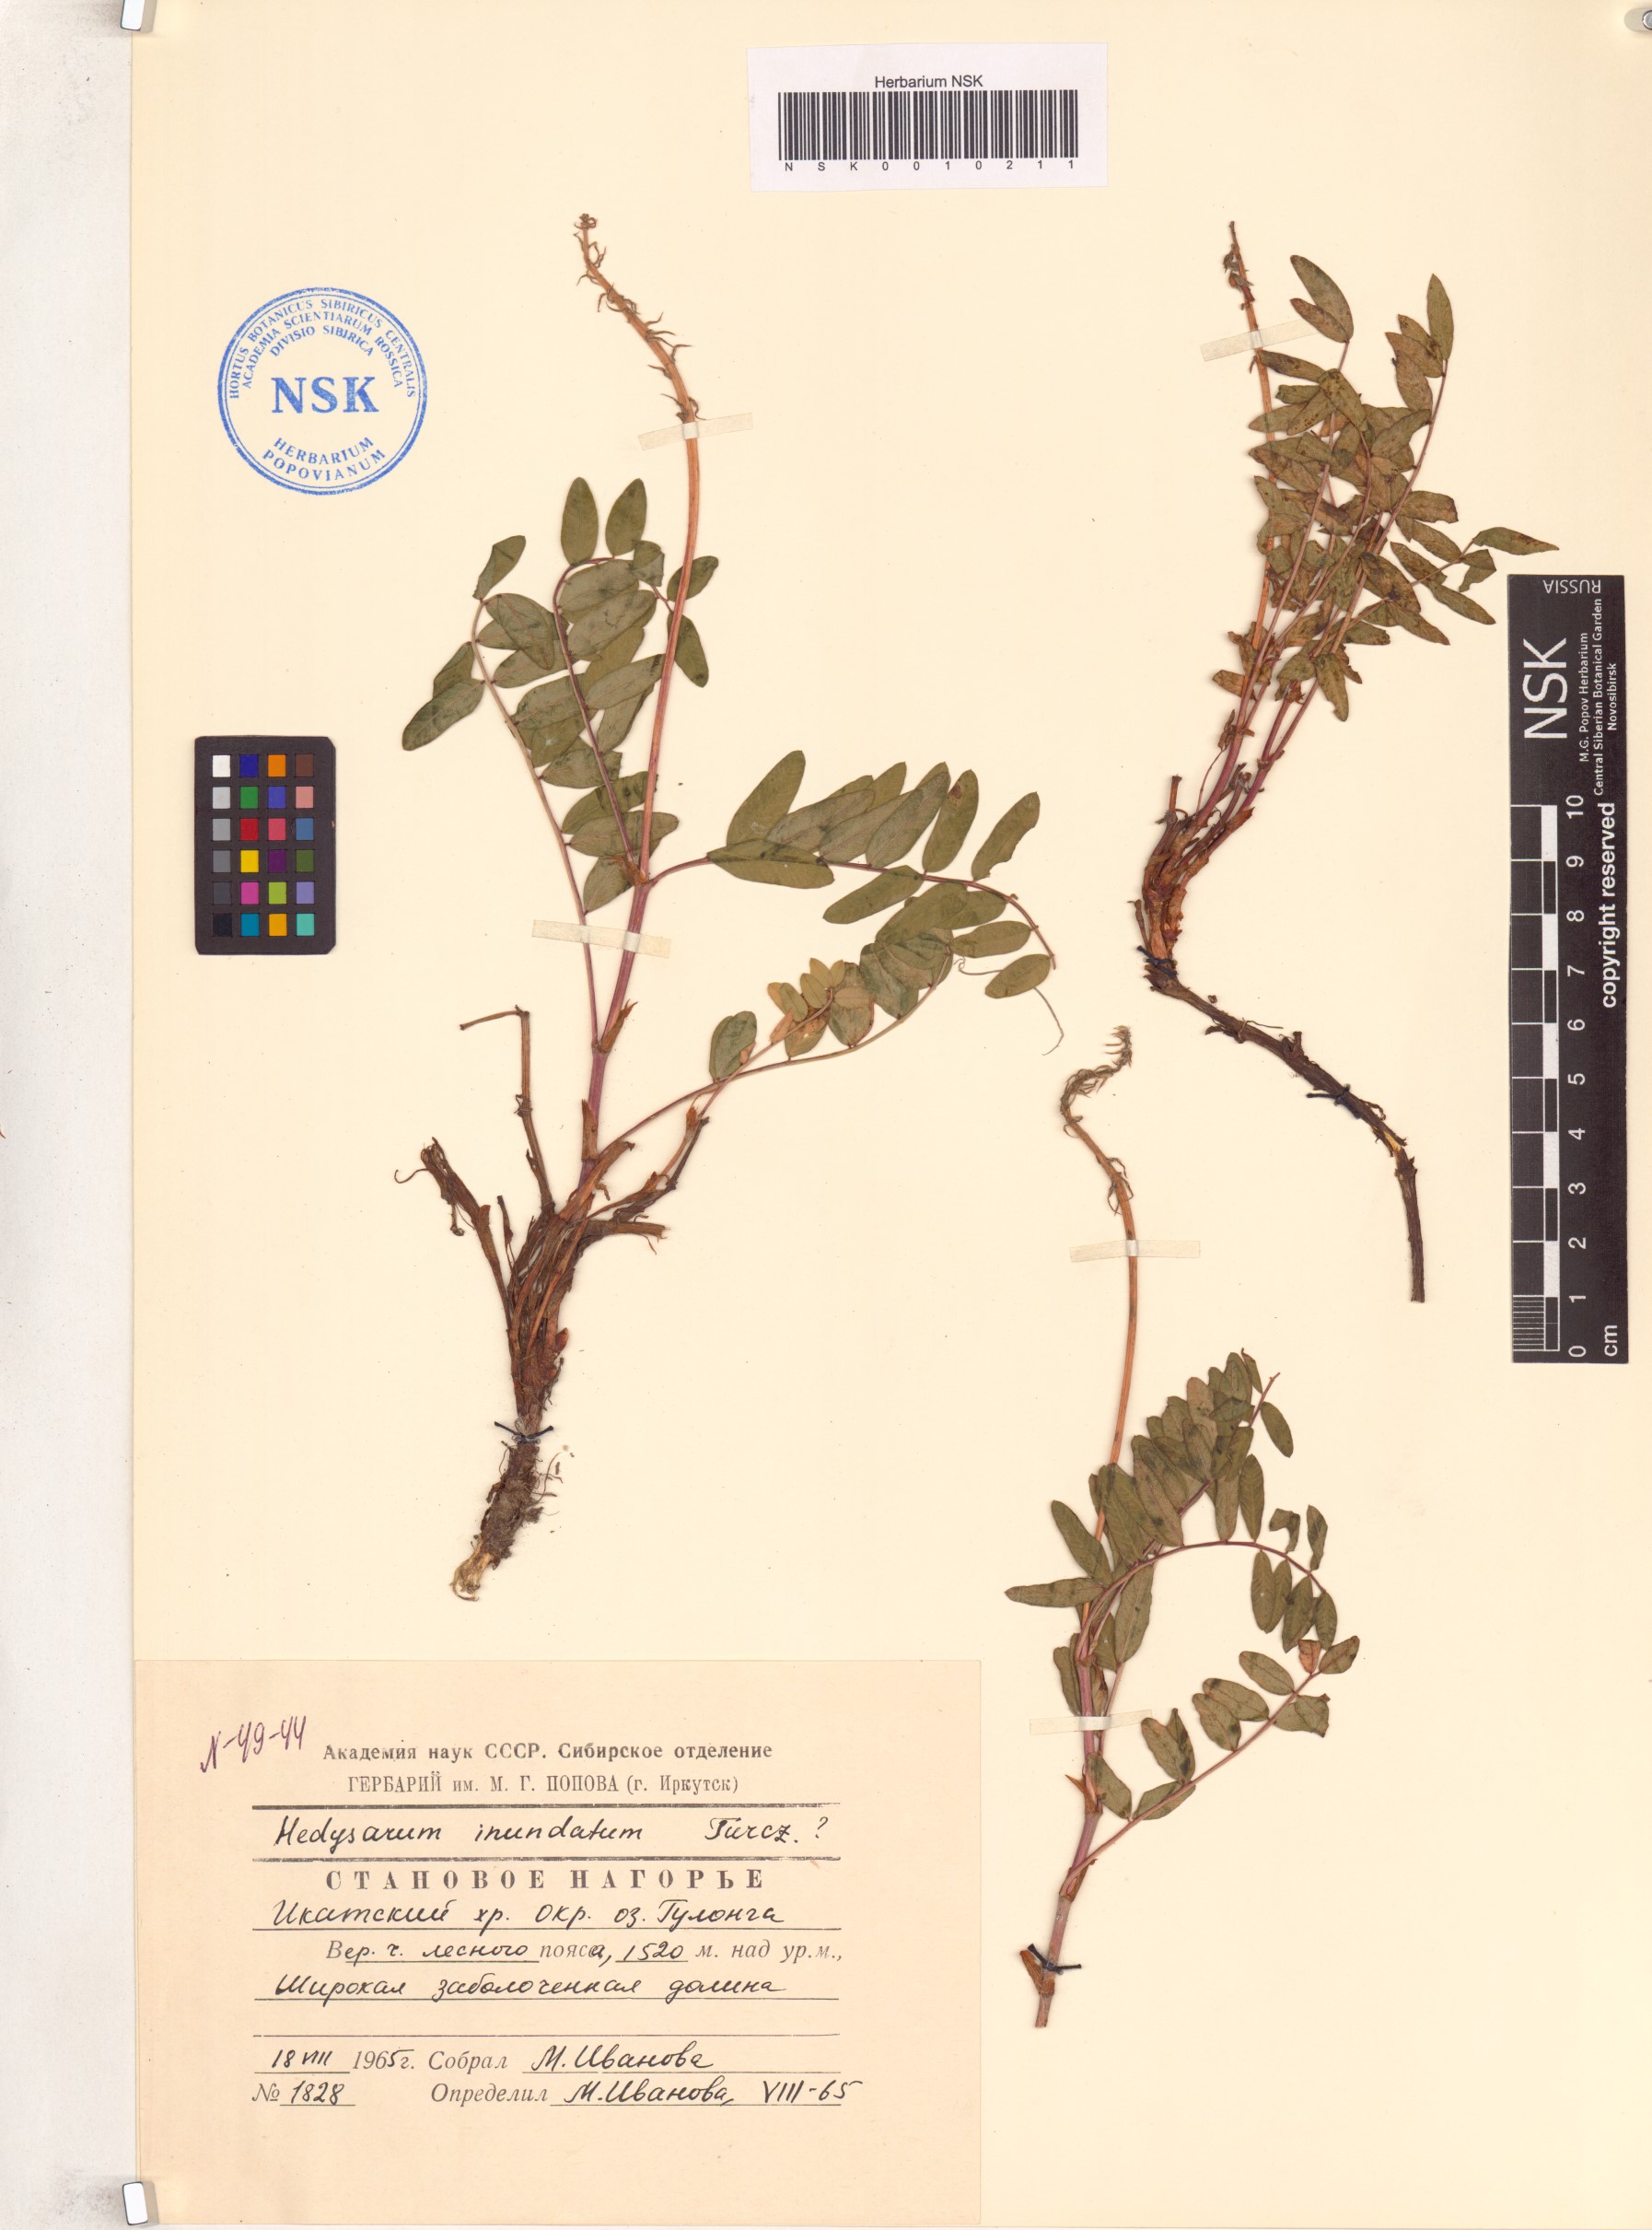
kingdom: Plantae
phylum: Tracheophyta
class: Magnoliopsida
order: Fabales
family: Fabaceae
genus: Hedysarum
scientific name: Hedysarum inundatum
